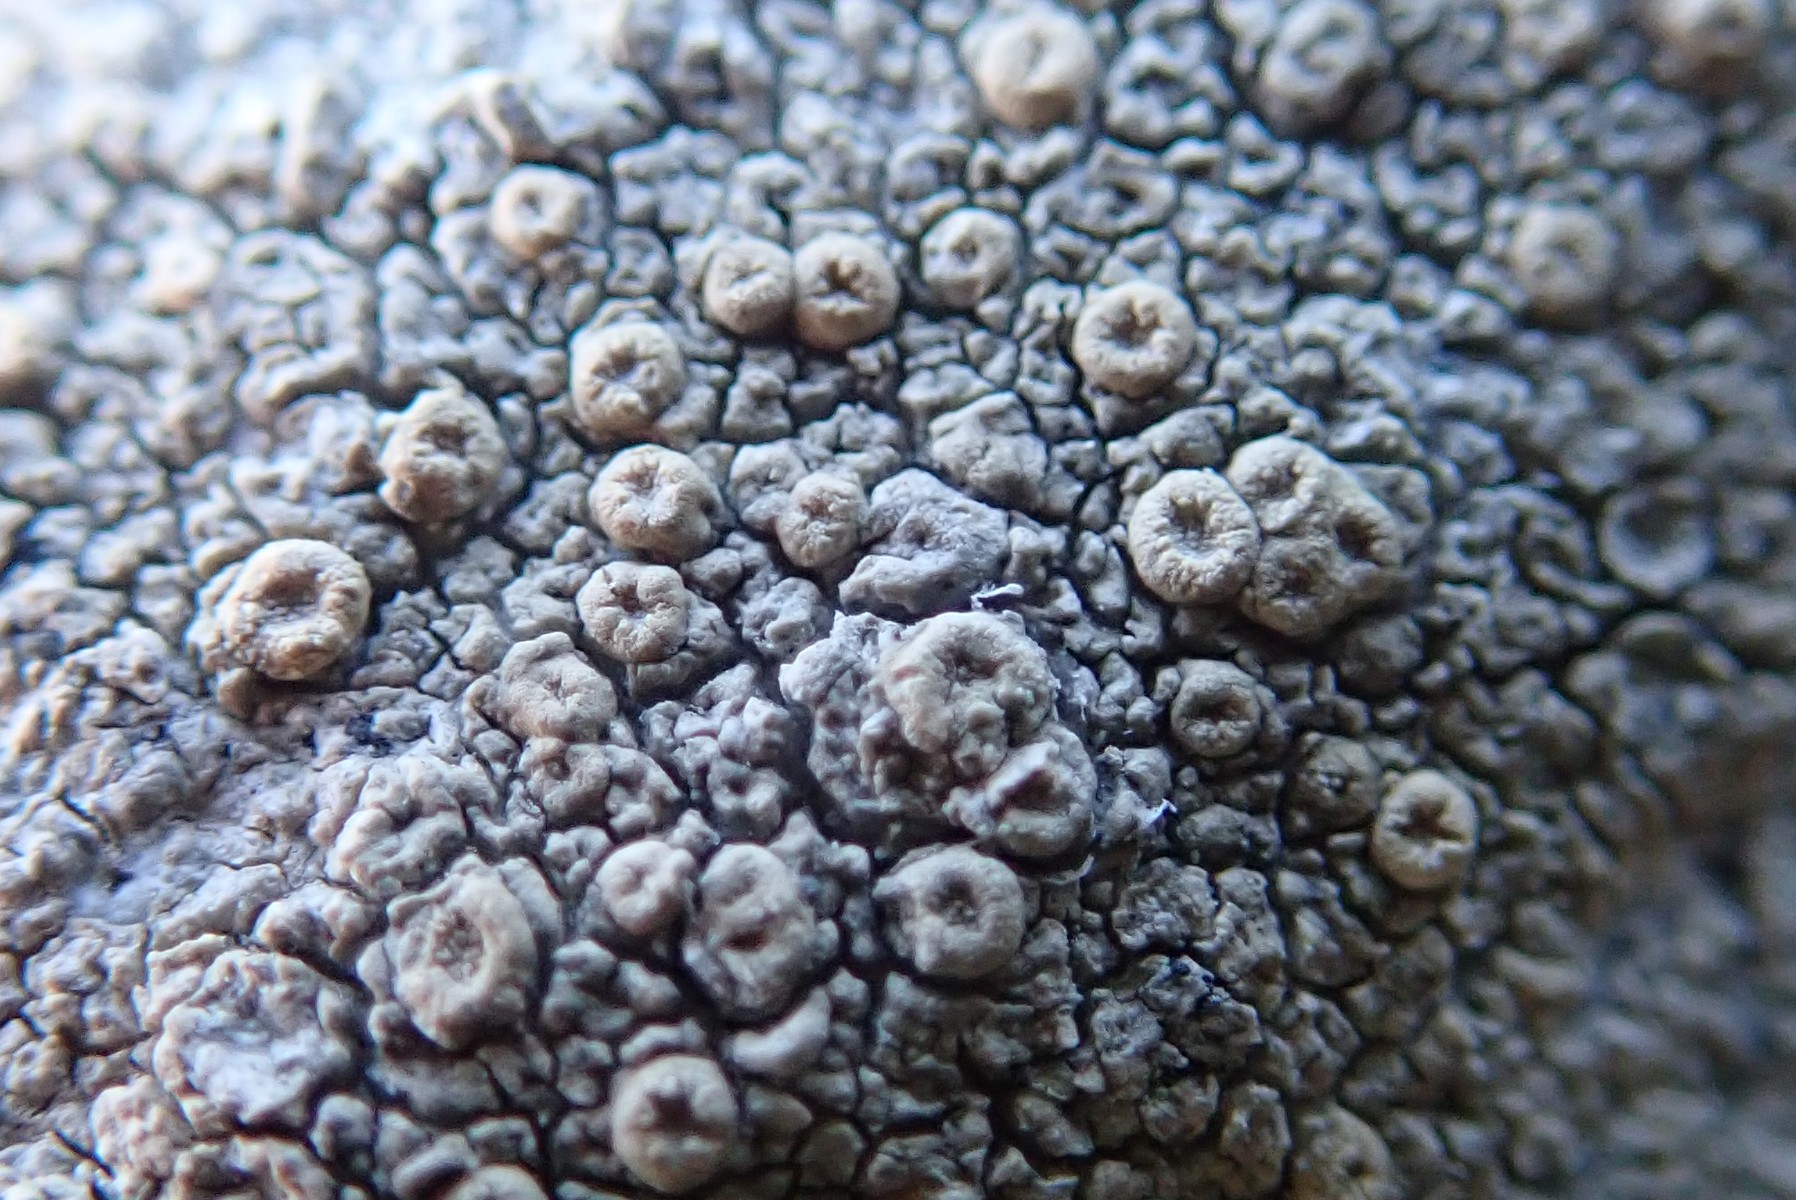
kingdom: Fungi
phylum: Ascomycota
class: Lecanoromycetes
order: Pertusariales
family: Ochrolechiaceae
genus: Ochrolechia
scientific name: Ochrolechia parella
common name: almindelig blegskivelav
